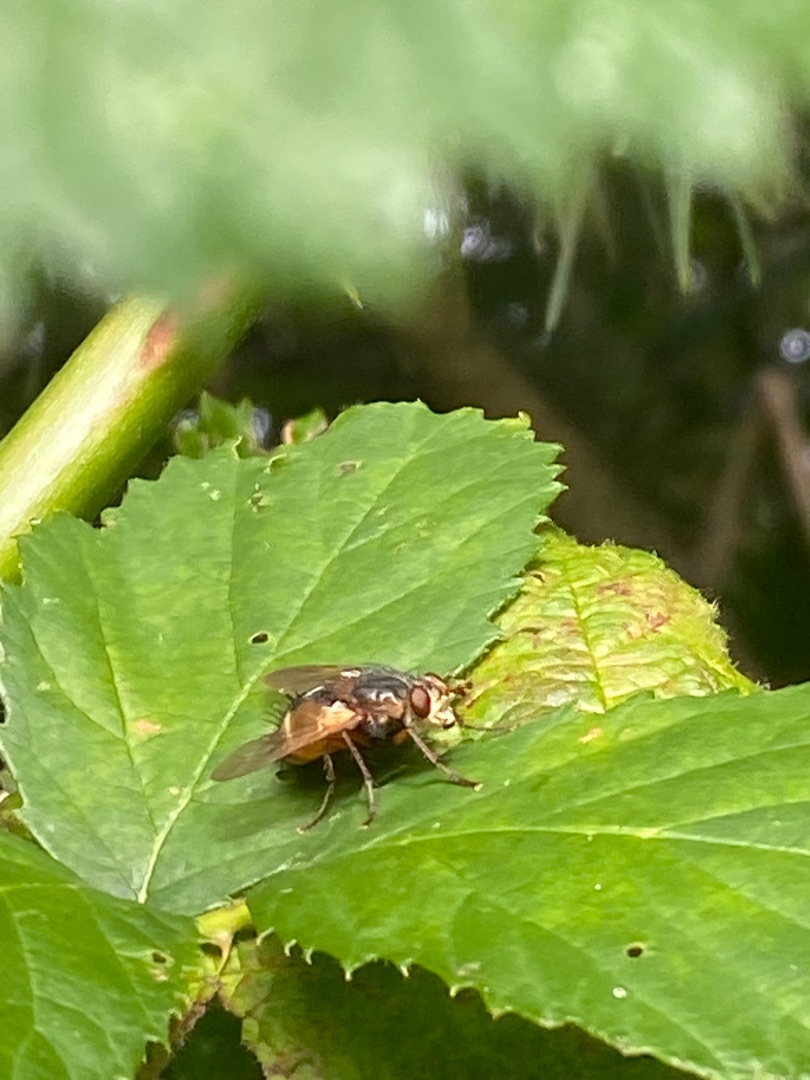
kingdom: Animalia
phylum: Arthropoda
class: Insecta
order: Diptera
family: Tachinidae
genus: Tachina
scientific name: Tachina fera
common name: Mellemfluen oskar
